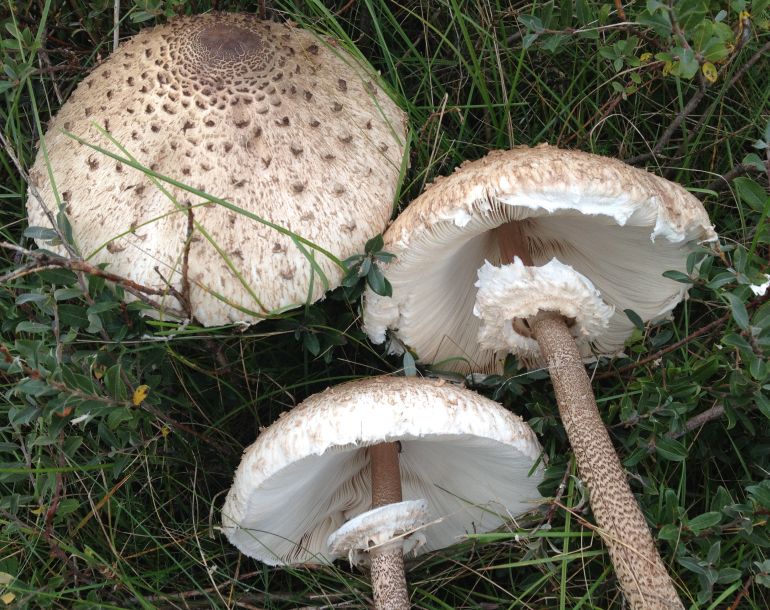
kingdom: Fungi
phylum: Basidiomycota
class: Agaricomycetes
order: Agaricales
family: Agaricaceae
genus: Macrolepiota
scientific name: Macrolepiota procera
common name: stor kæmpeparasolhat
